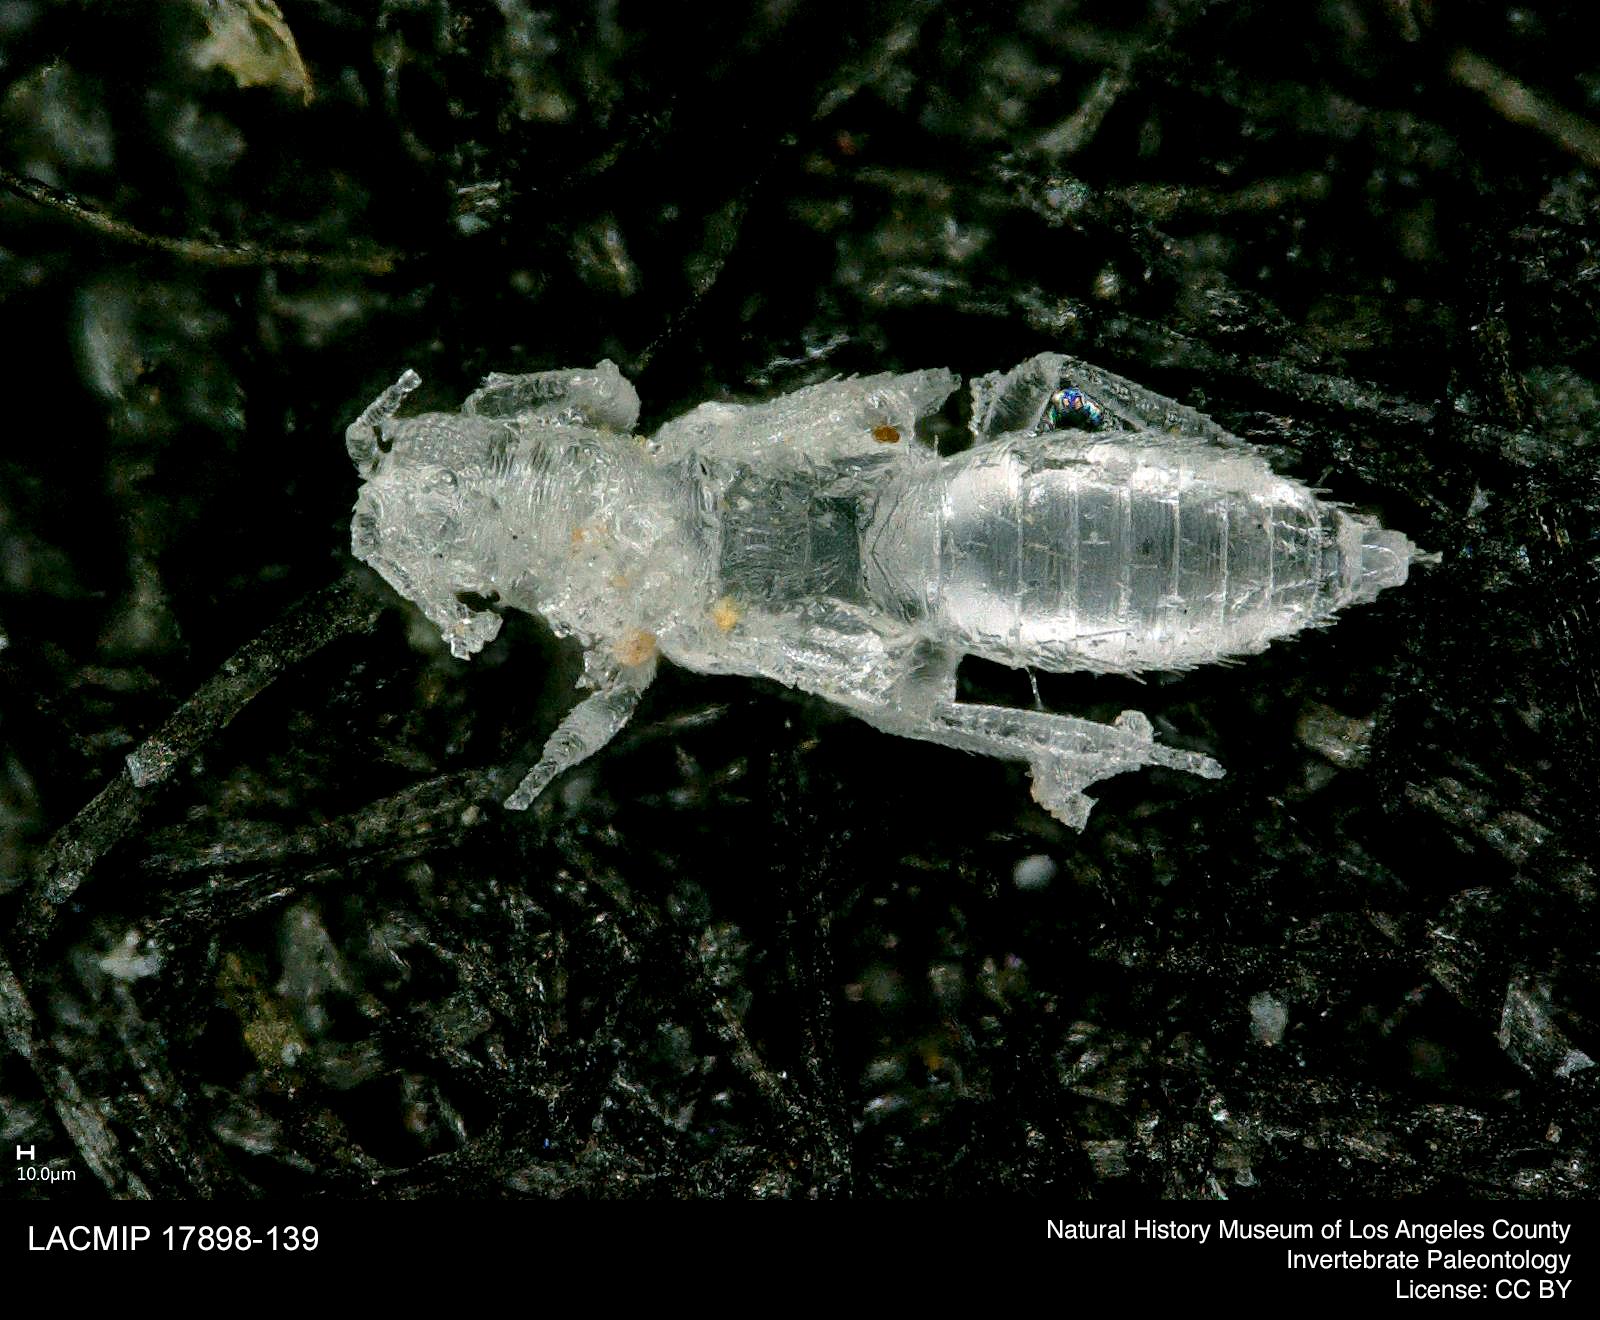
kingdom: Animalia
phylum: Arthropoda
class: Insecta
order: Thysanoptera
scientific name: Thysanoptera
